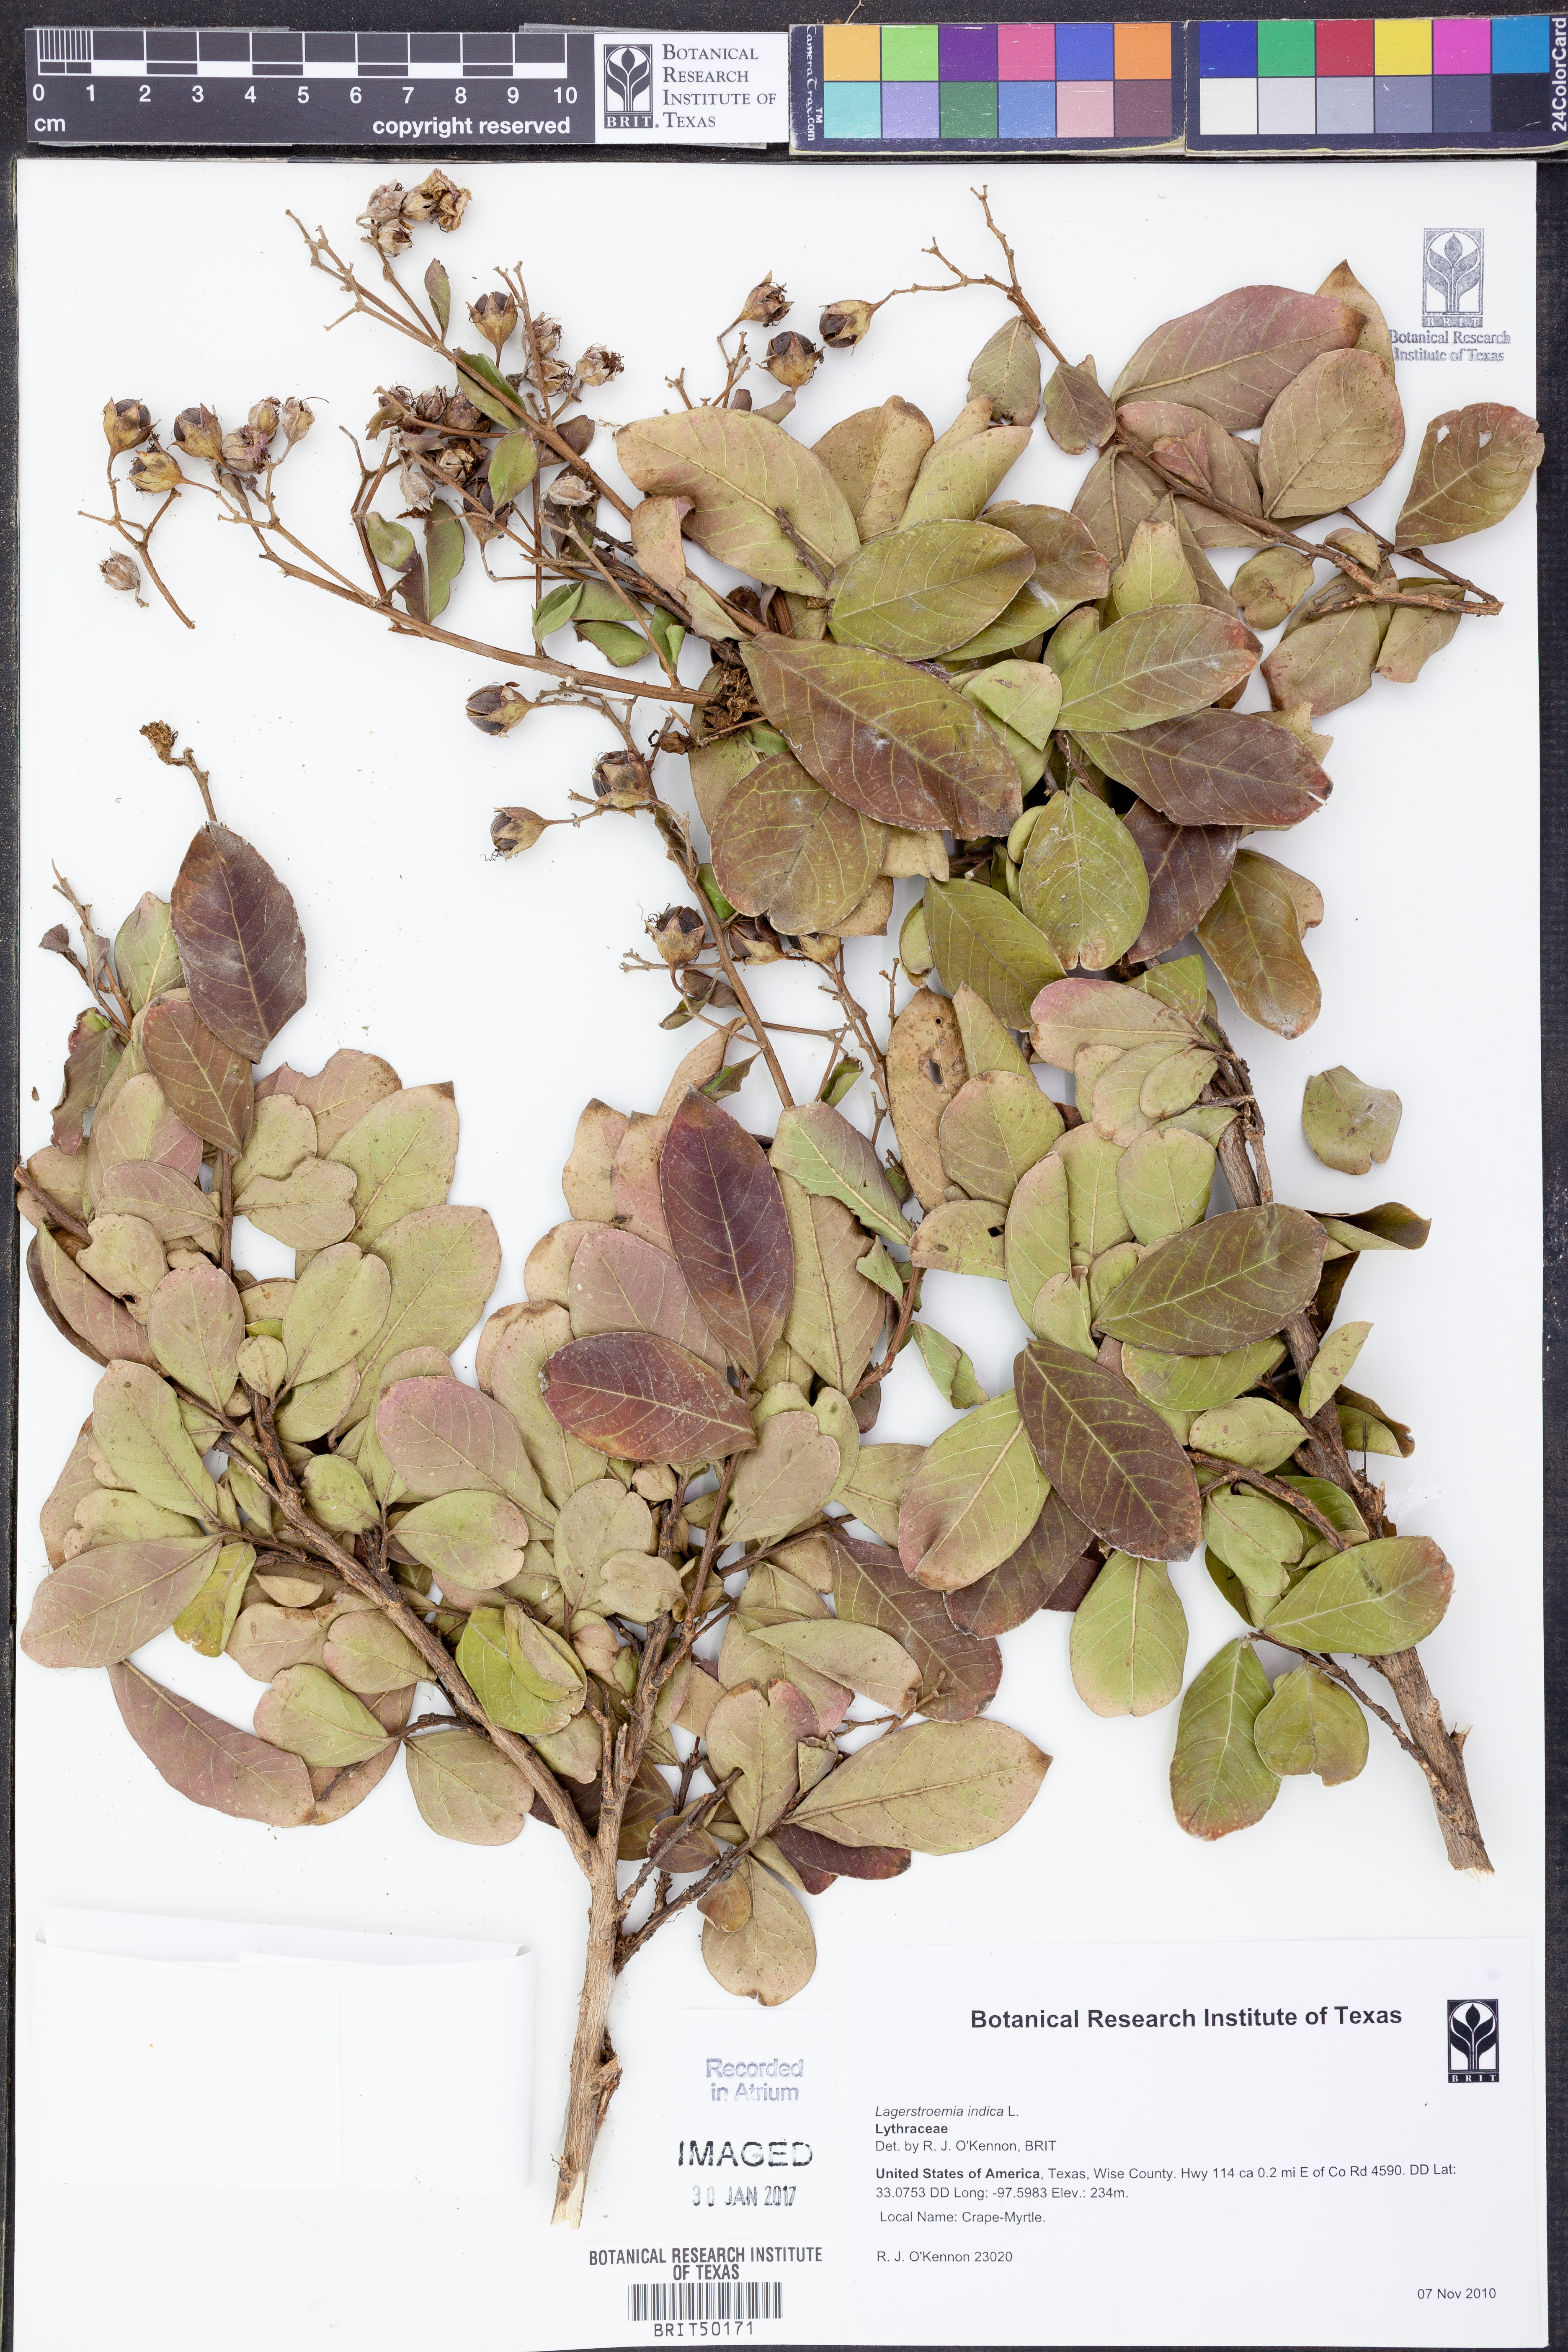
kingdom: Plantae
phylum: Tracheophyta
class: Magnoliopsida
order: Myrtales
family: Lythraceae
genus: Lagerstroemia
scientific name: Lagerstroemia indica
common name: Crape-myrtle
